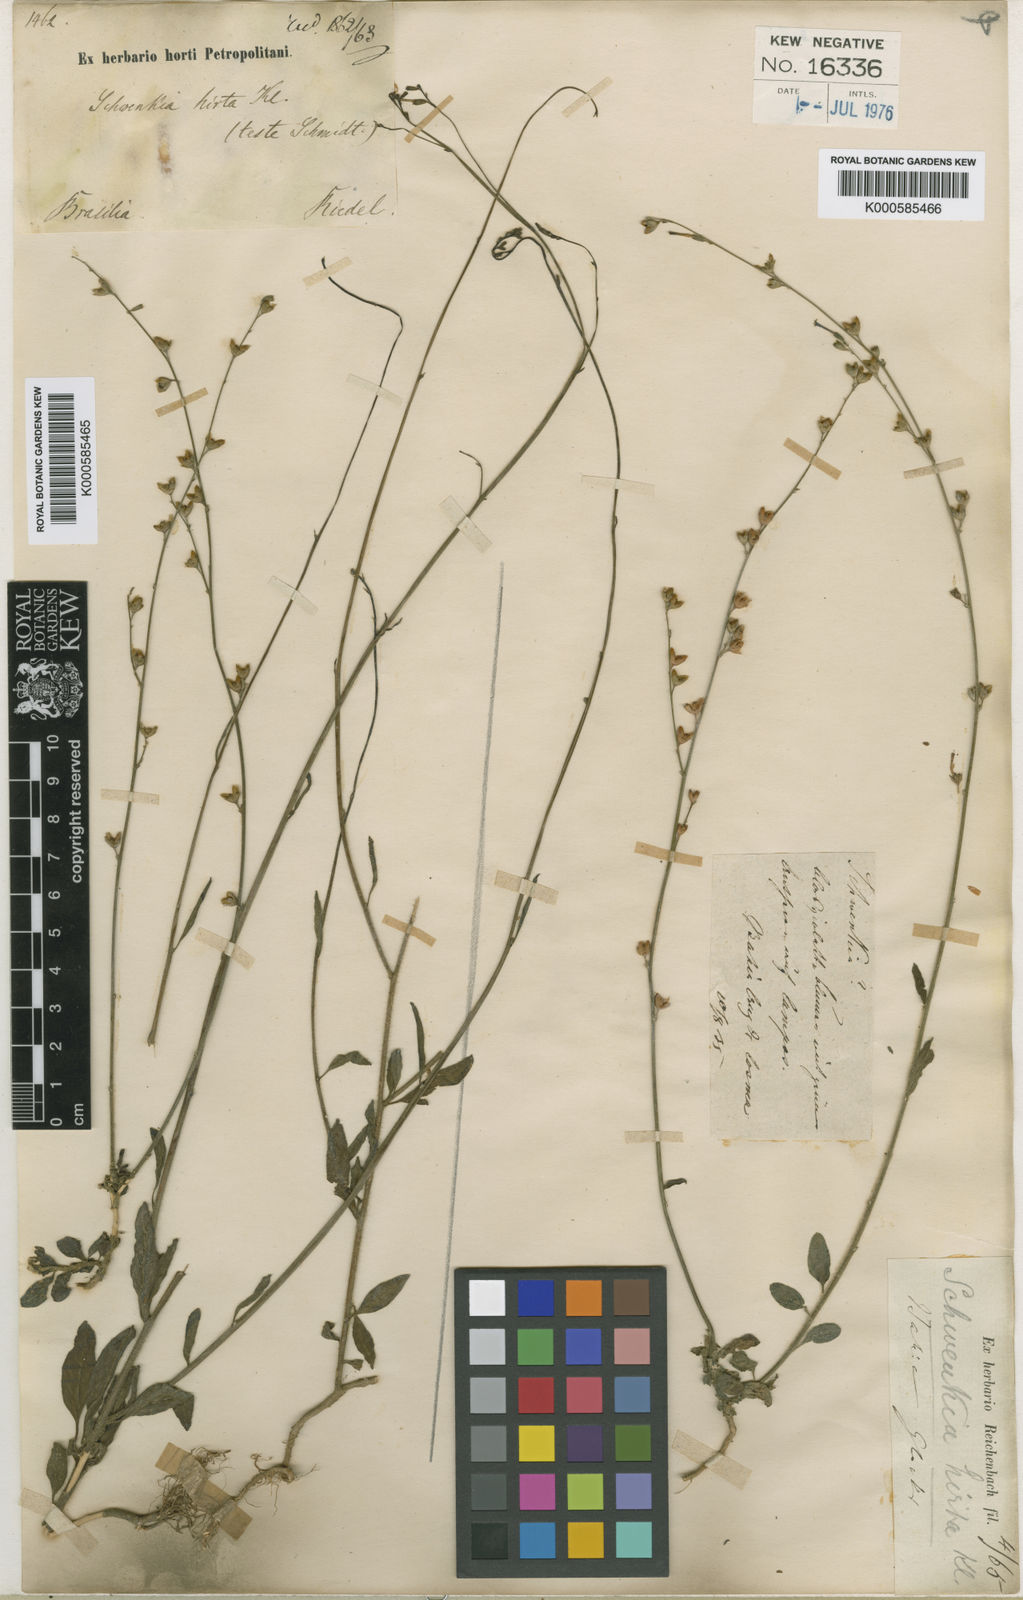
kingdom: Plantae
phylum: Tracheophyta
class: Magnoliopsida
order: Solanales
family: Solanaceae
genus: Schwenckia
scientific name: Schwenckia americana
